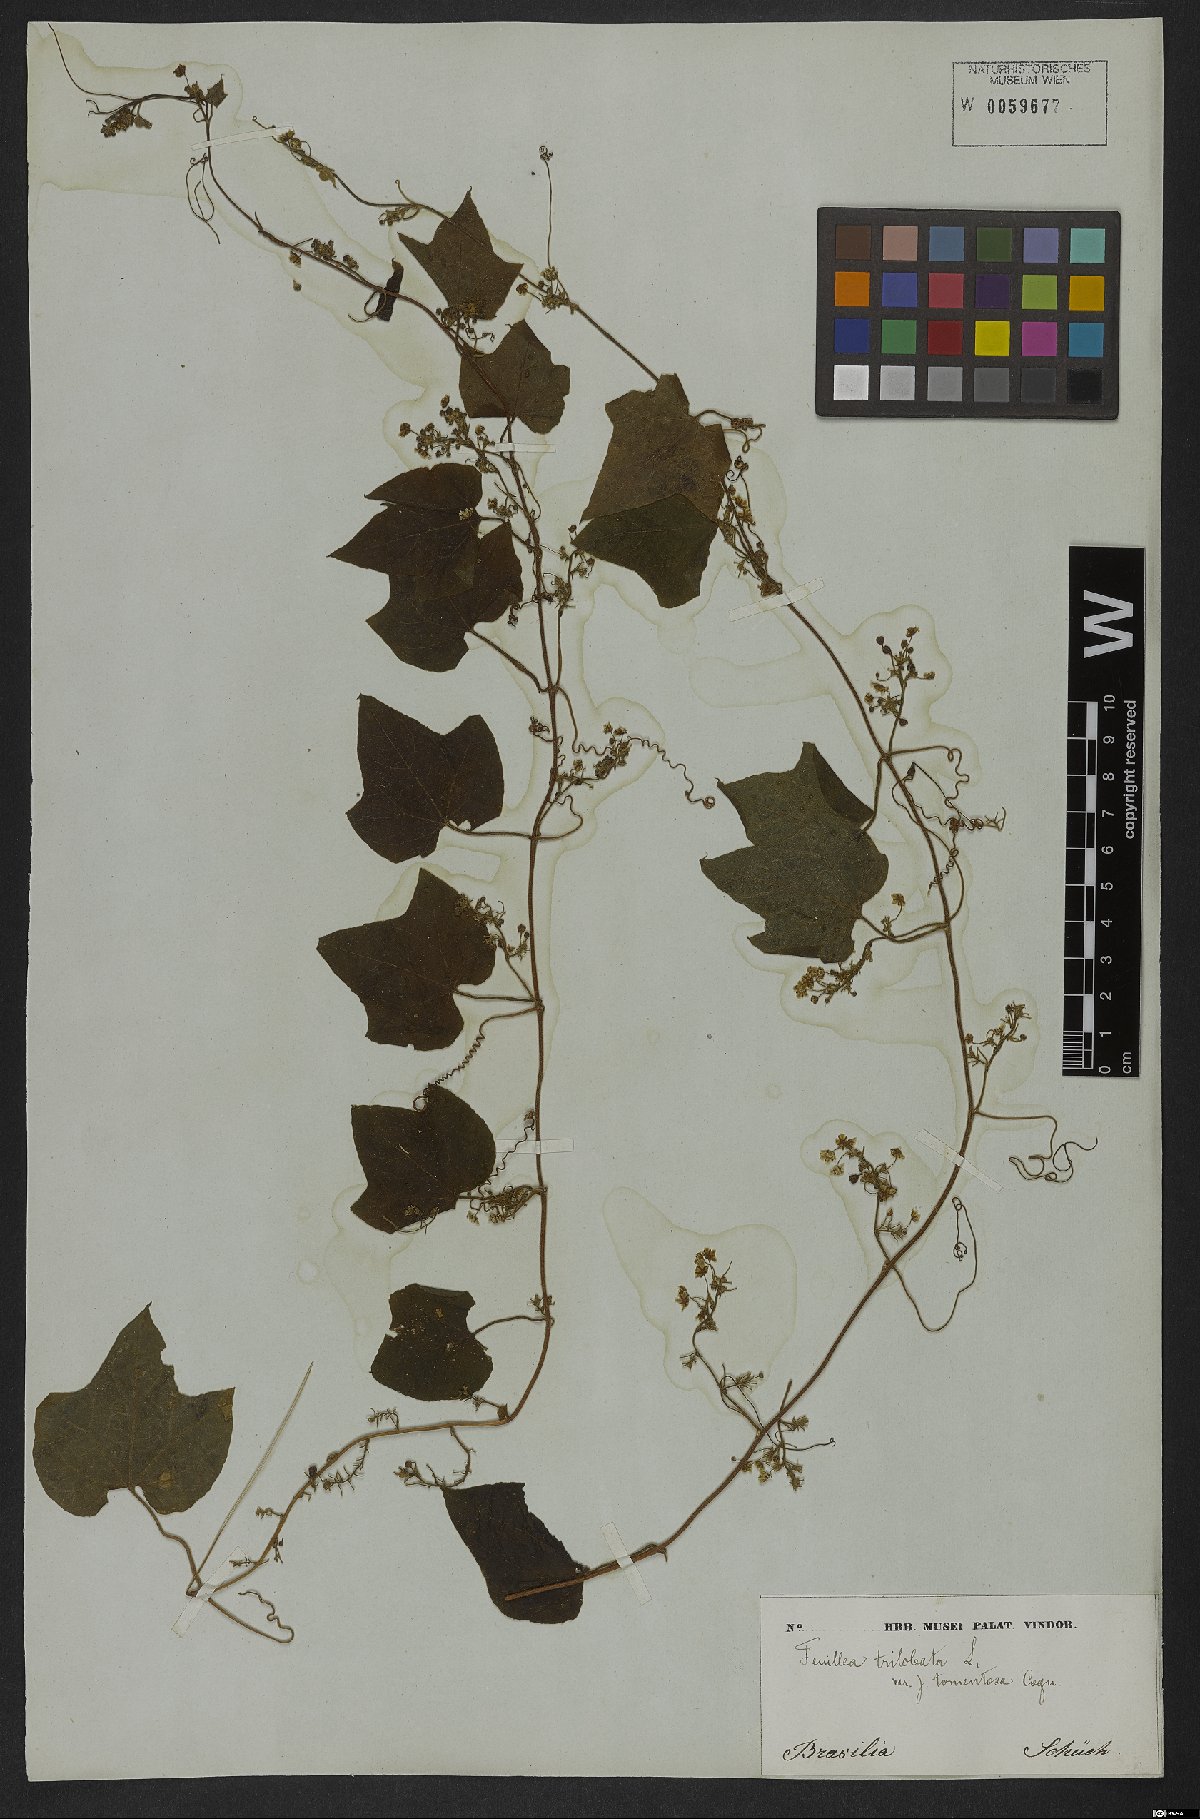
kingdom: Plantae
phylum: Tracheophyta
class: Magnoliopsida
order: Cucurbitales
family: Cucurbitaceae
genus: Fevillea
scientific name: Fevillea trilobata
